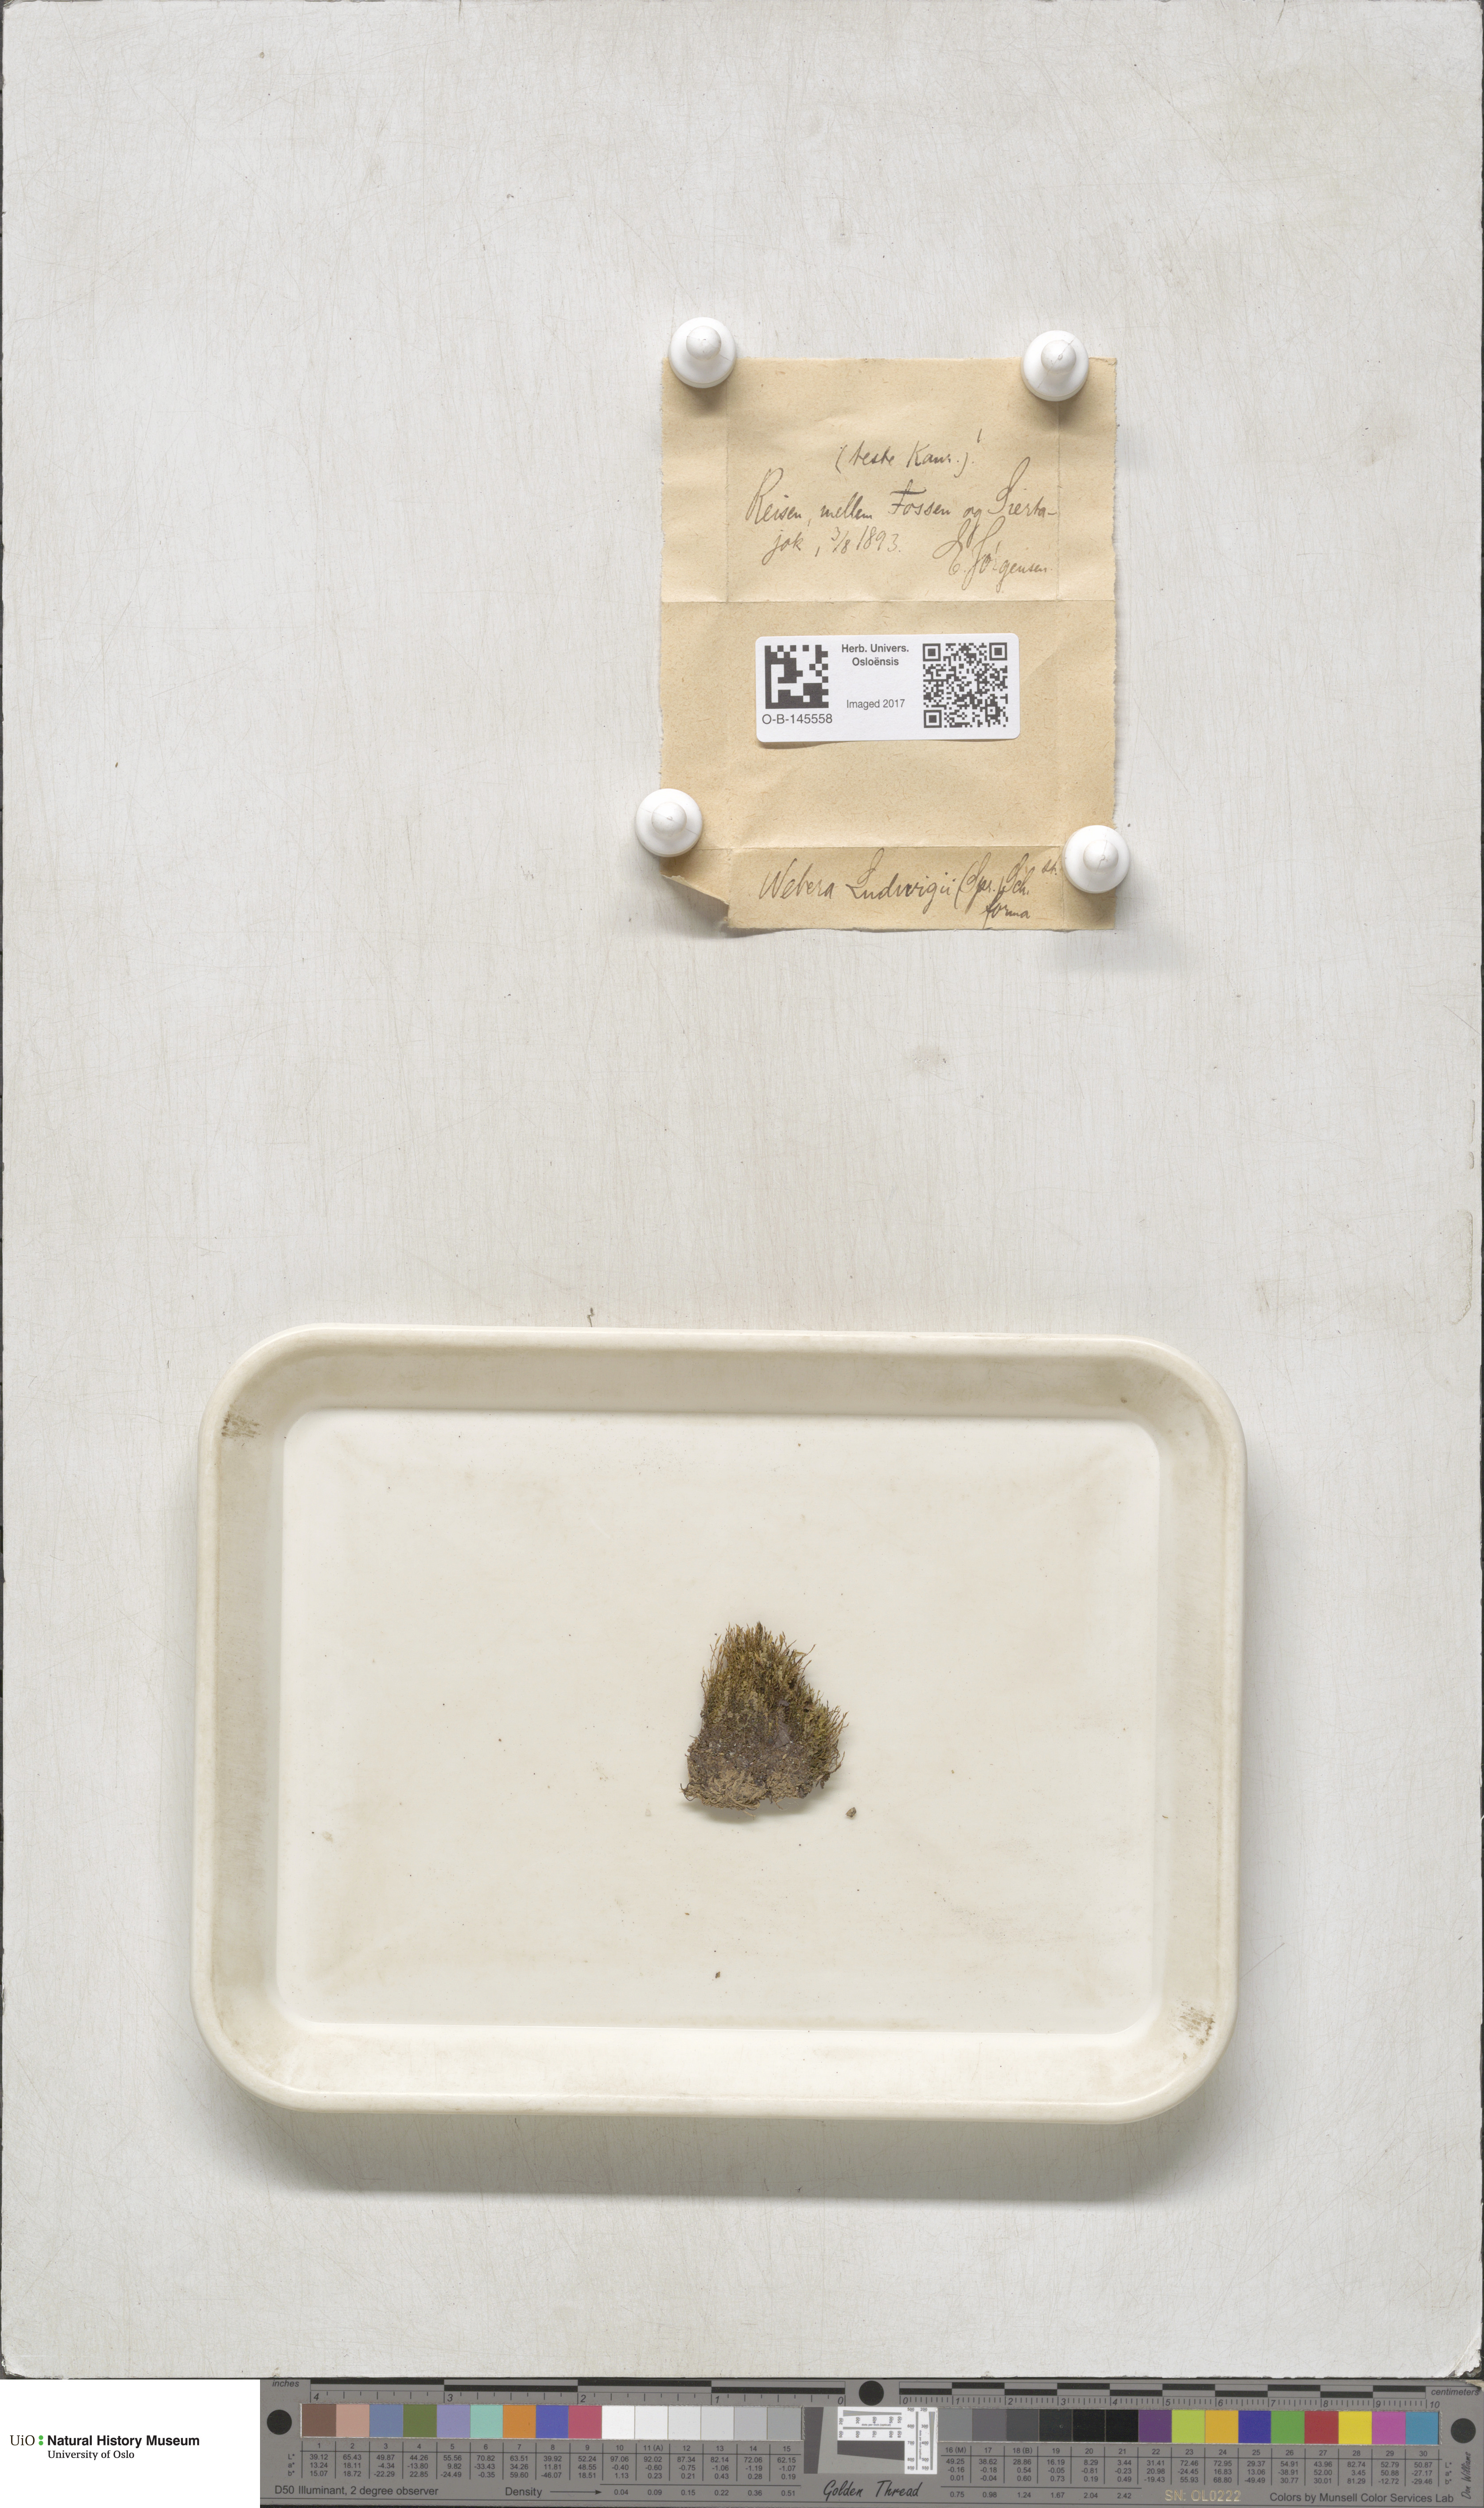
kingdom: Plantae
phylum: Bryophyta
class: Bryopsida
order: Bryales
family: Mniaceae
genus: Pohlia
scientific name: Pohlia ludwigii
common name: Ludwig's thread-moss
